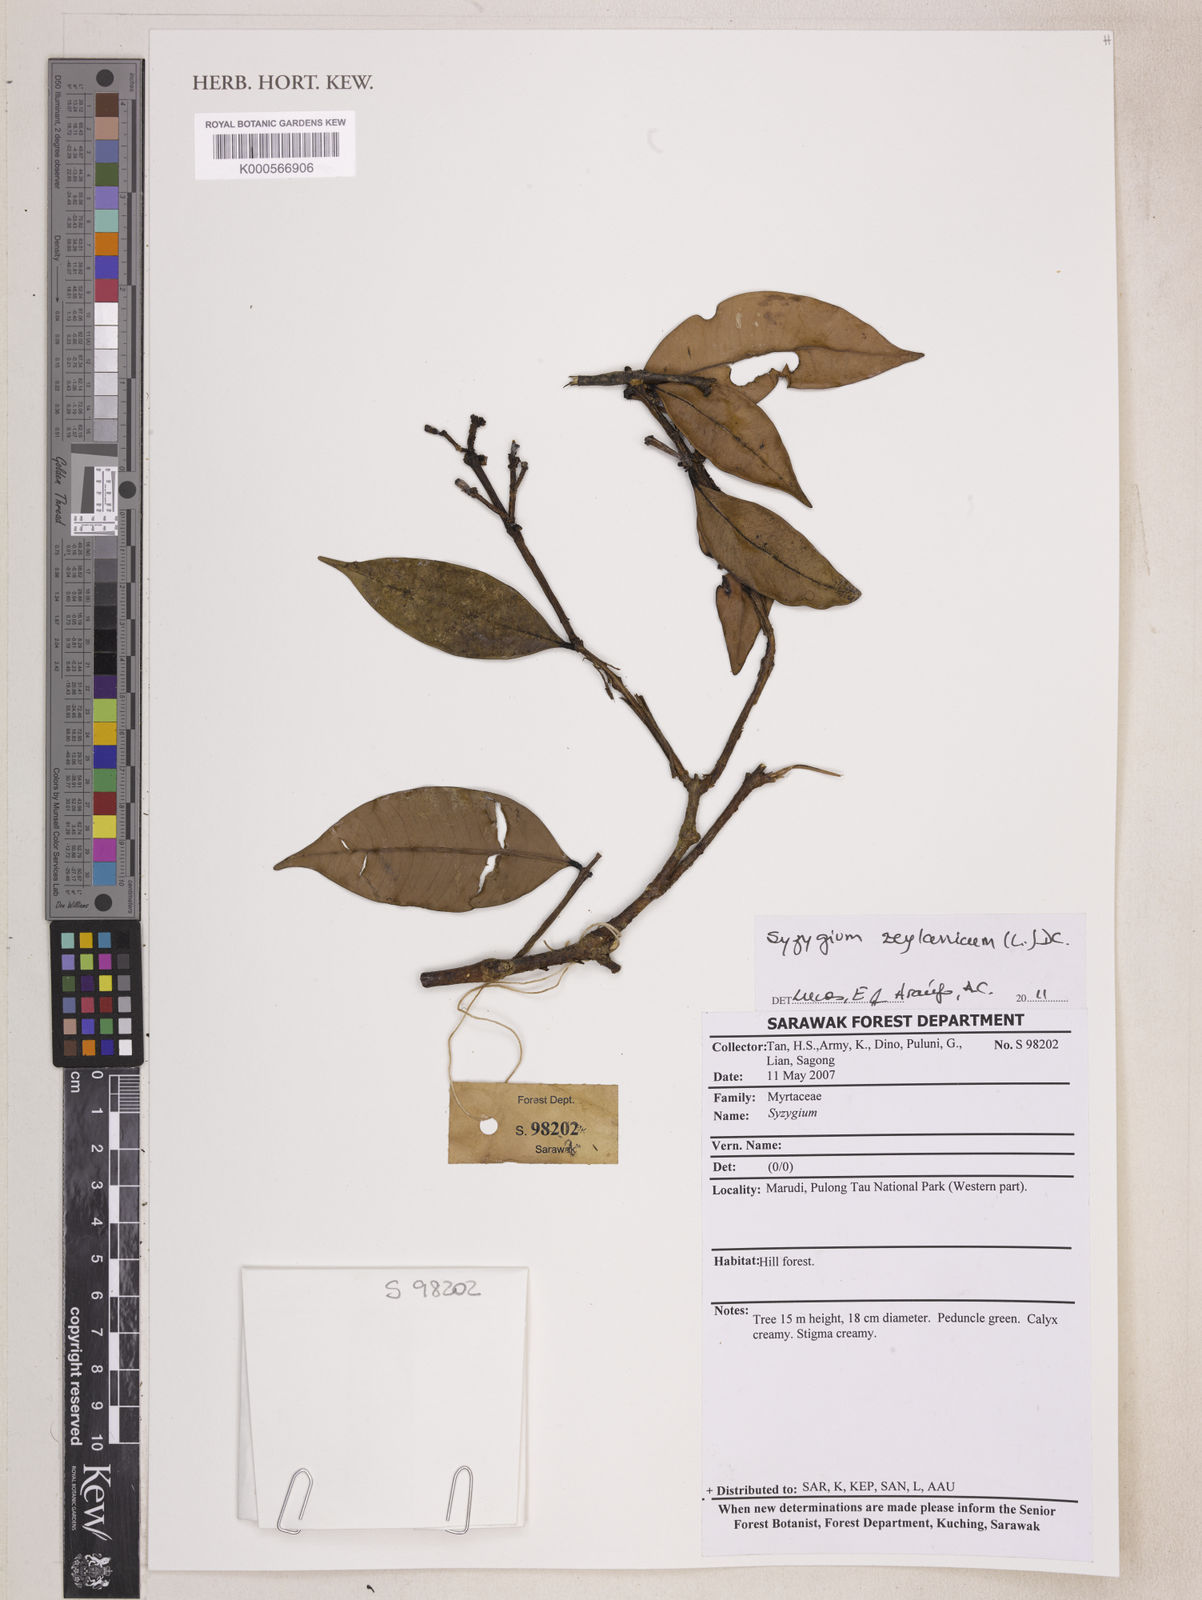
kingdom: Plantae
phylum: Tracheophyta
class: Magnoliopsida
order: Myrtales
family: Myrtaceae
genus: Syzygium
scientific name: Syzygium zeylanicum
